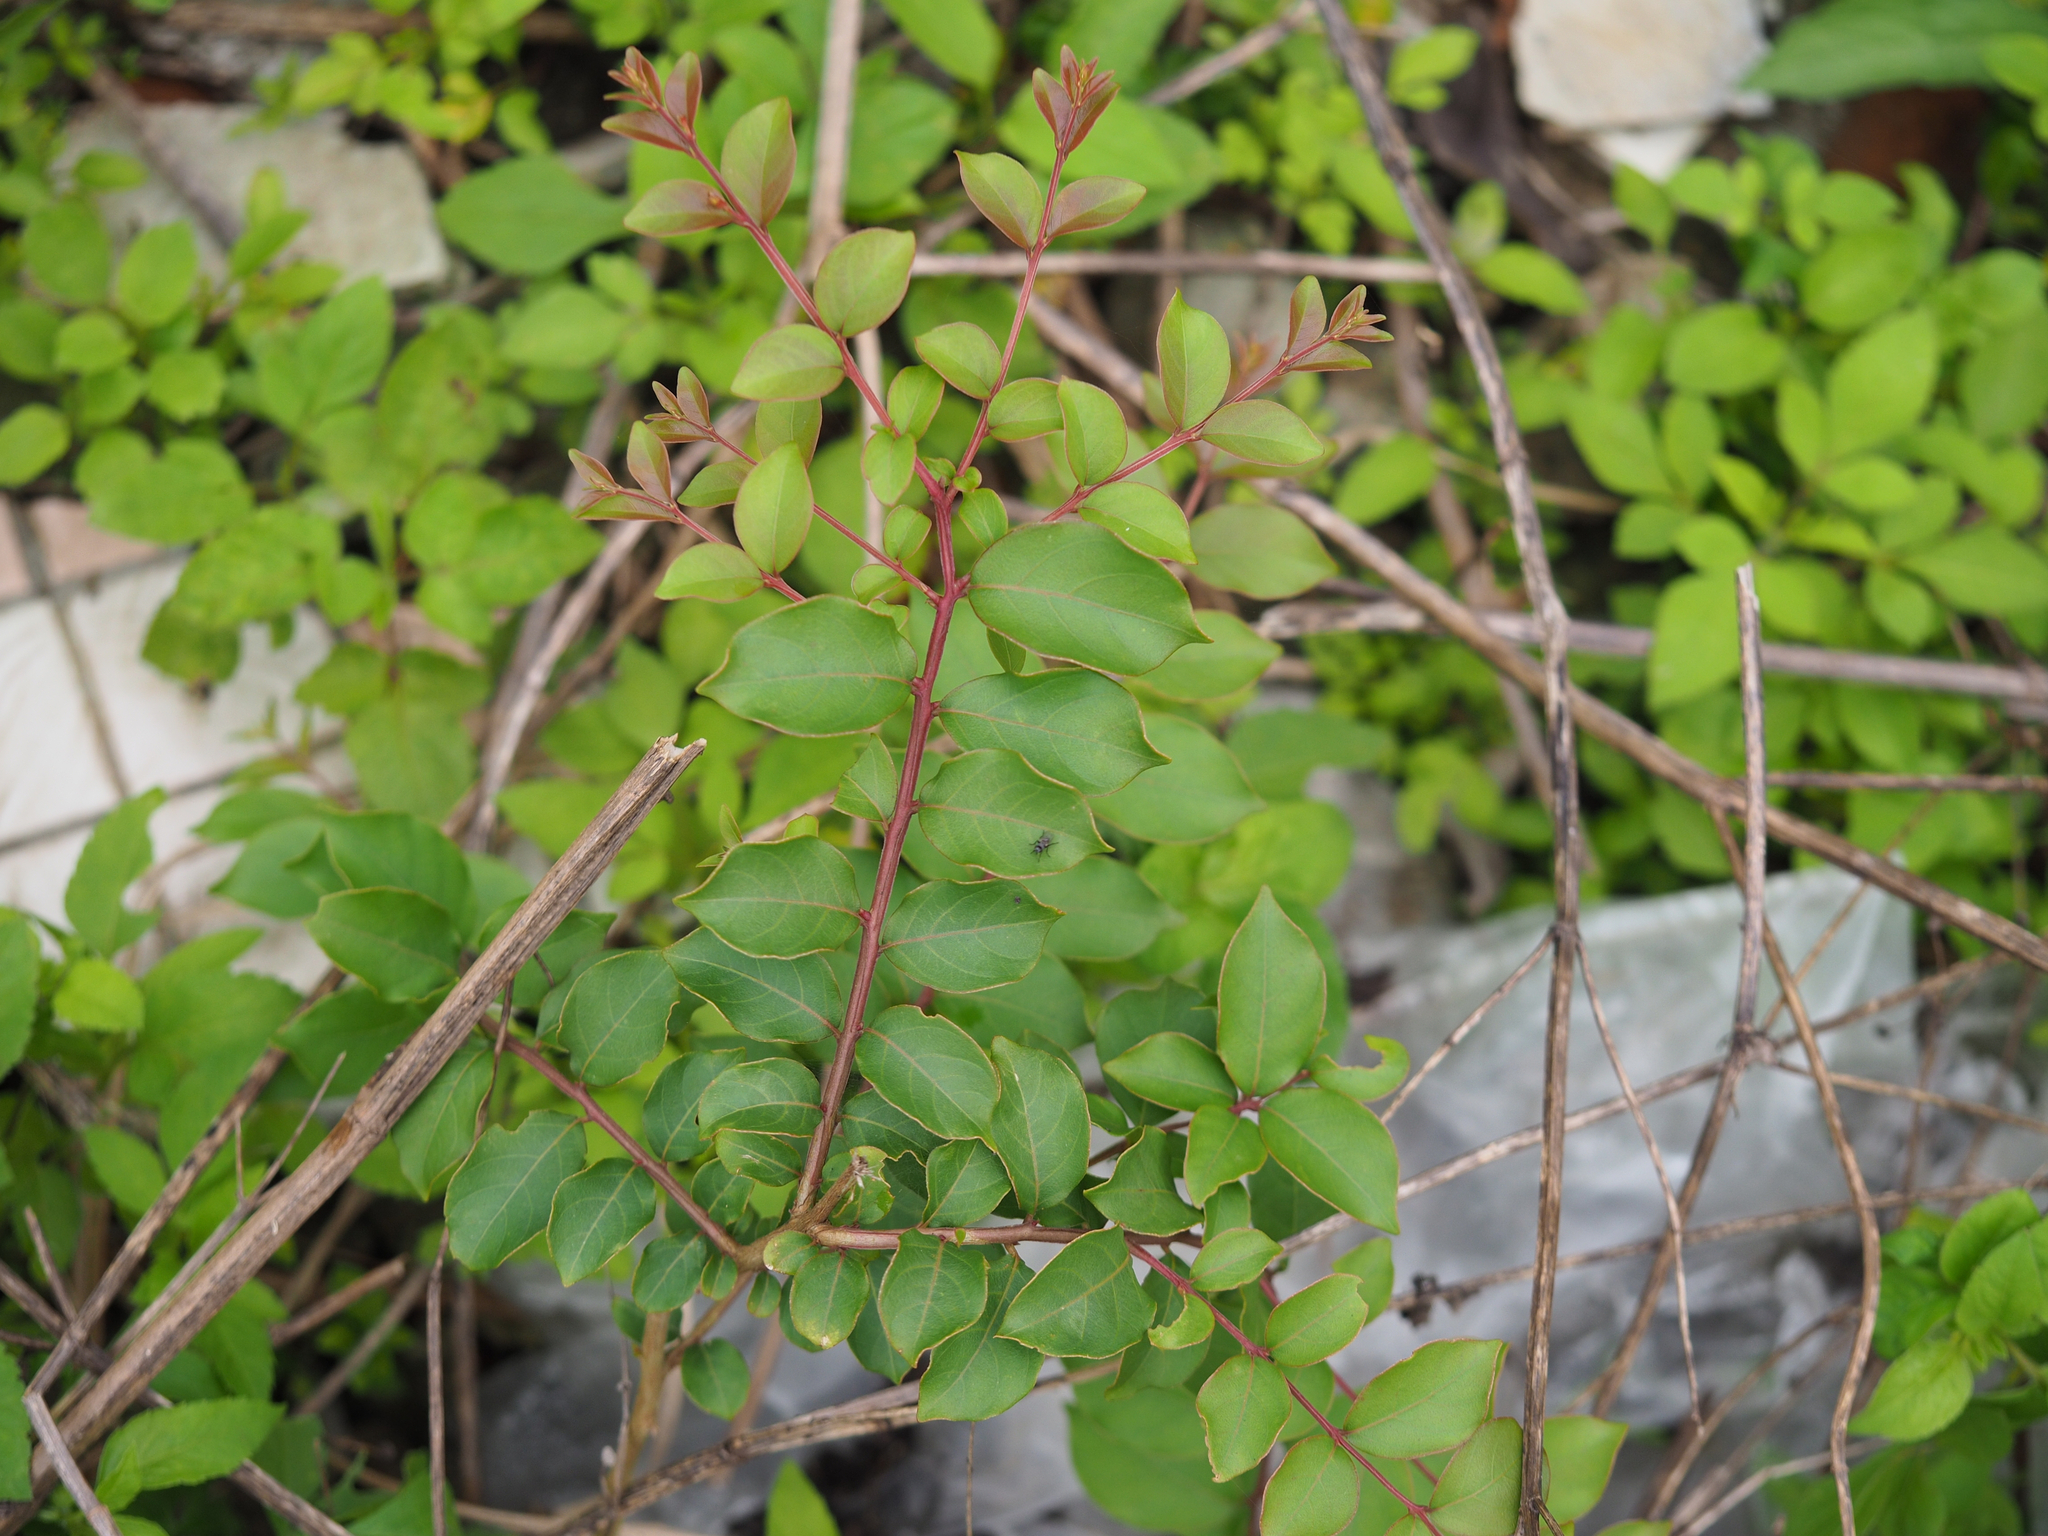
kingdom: Plantae
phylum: Tracheophyta
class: Magnoliopsida
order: Myrtales
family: Lythraceae
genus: Lagerstroemia
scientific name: Lagerstroemia subcostata
